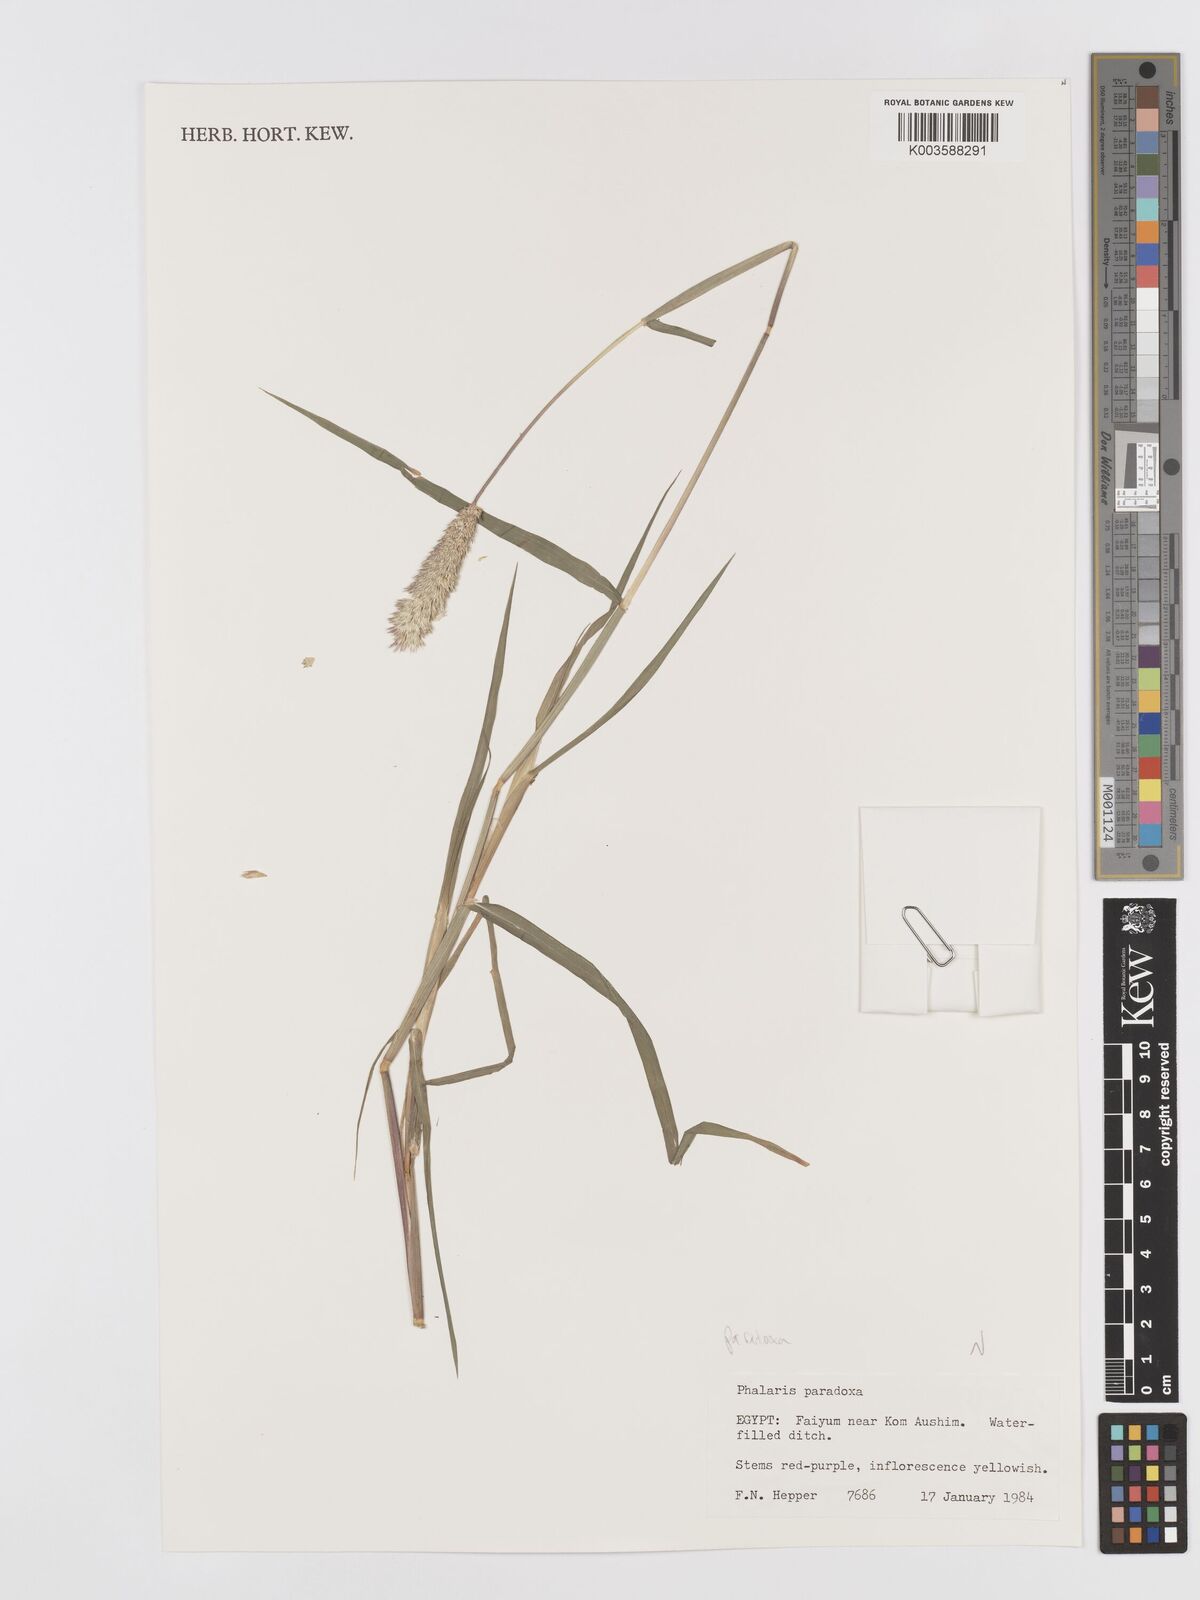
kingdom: Plantae
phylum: Tracheophyta
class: Liliopsida
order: Poales
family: Poaceae
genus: Phalaris
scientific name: Phalaris paradoxa
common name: Awned canary-grass
